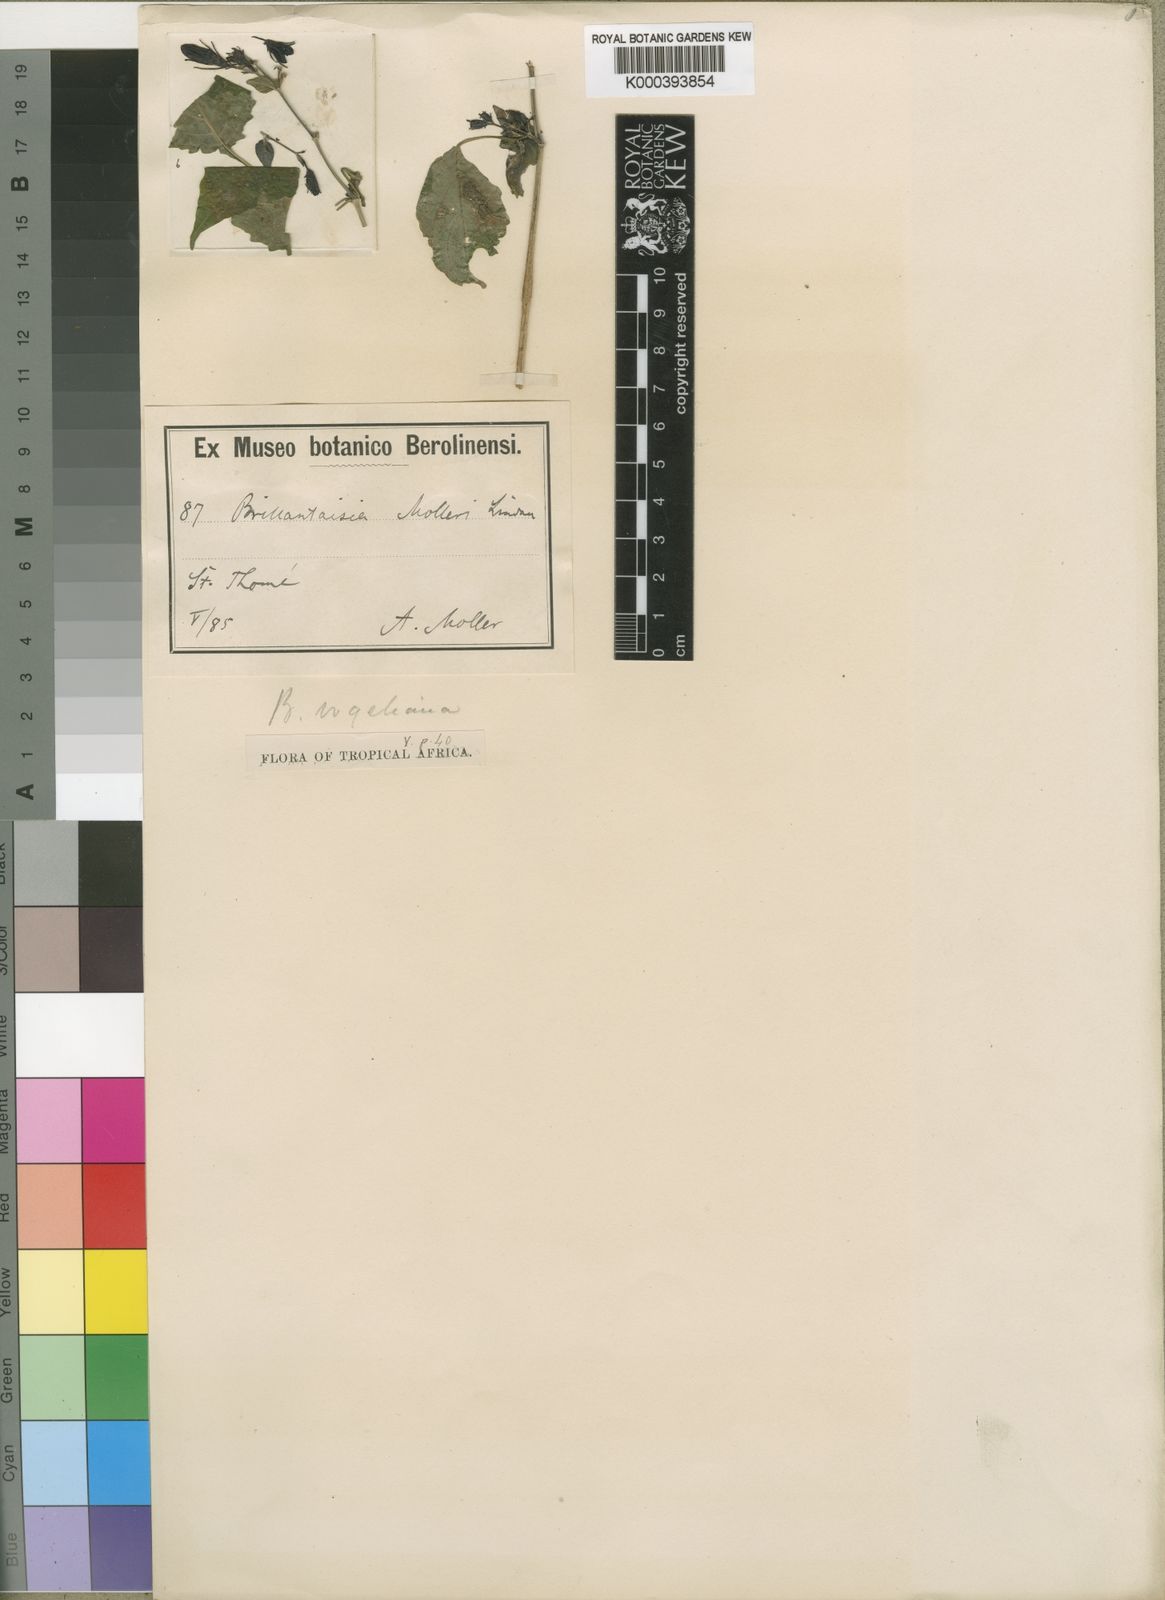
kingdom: Plantae
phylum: Tracheophyta
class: Magnoliopsida
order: Lamiales
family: Acanthaceae
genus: Brillantaisia
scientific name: Brillantaisia vogeliana
